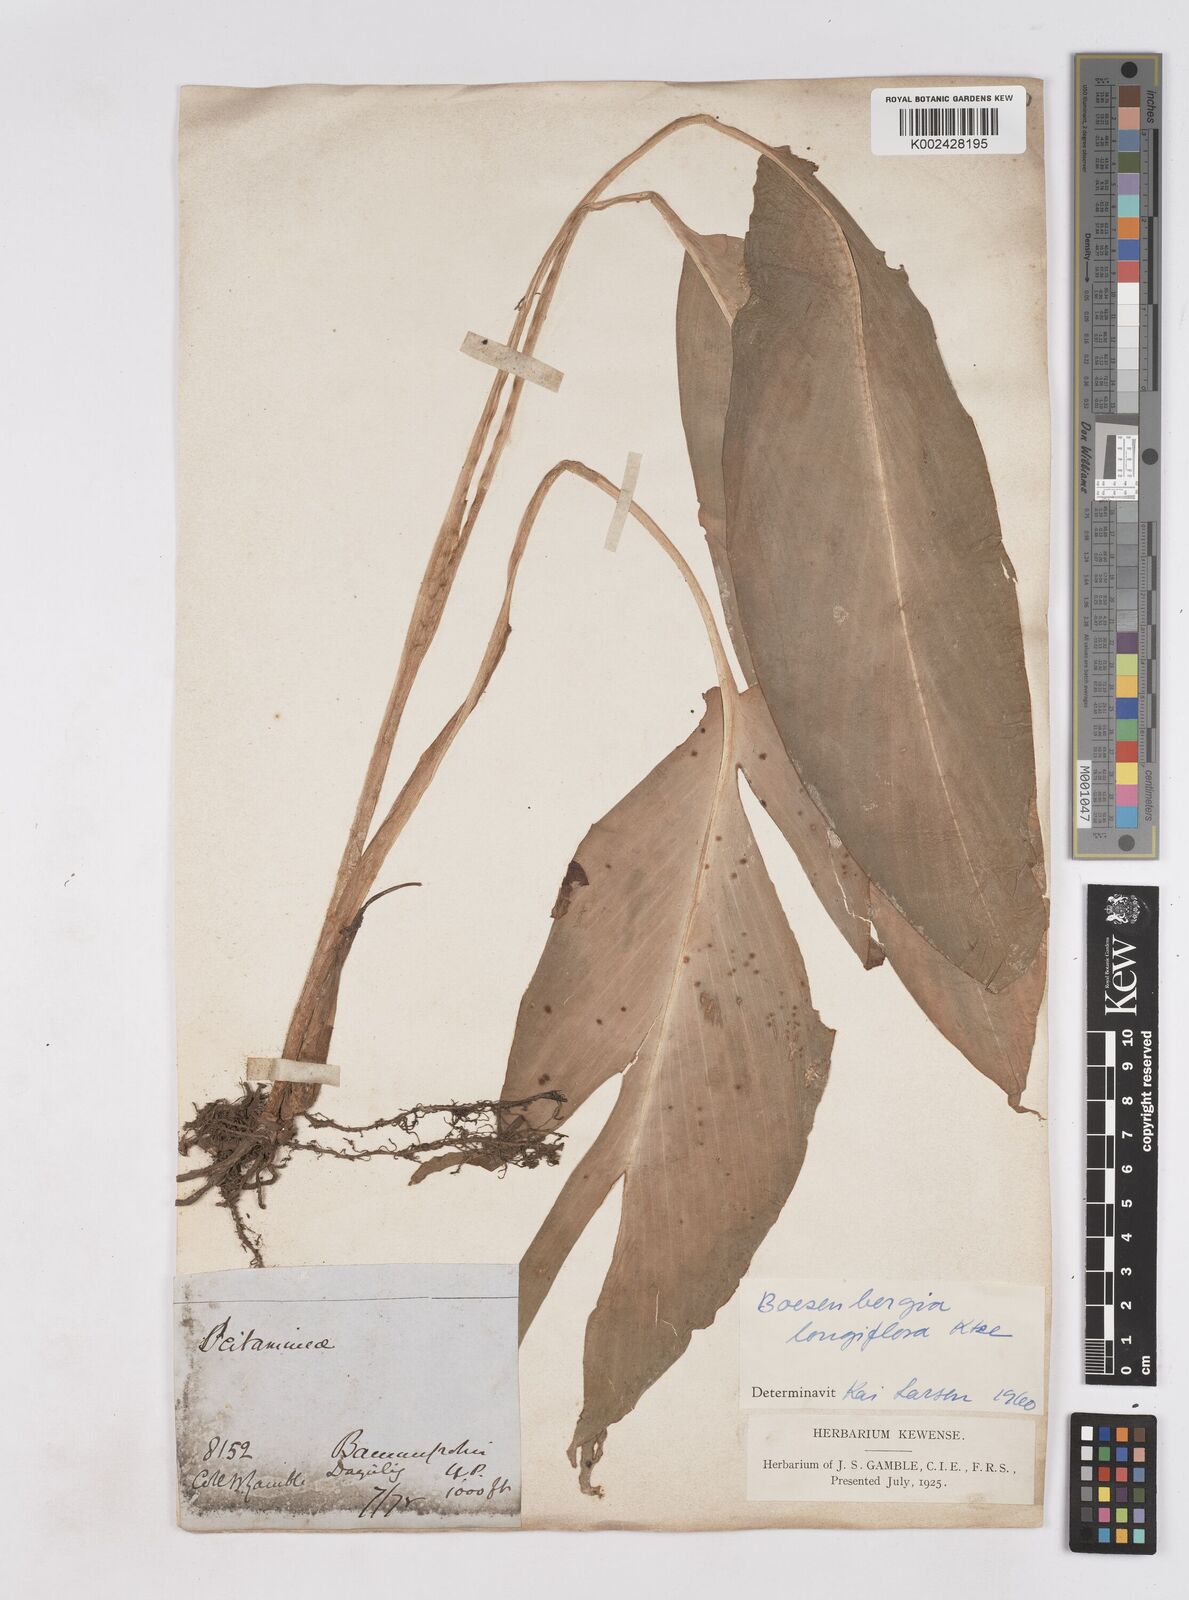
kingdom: Plantae
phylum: Tracheophyta
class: Liliopsida
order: Zingiberales
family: Zingiberaceae
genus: Boesenbergia
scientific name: Boesenbergia longiflora
